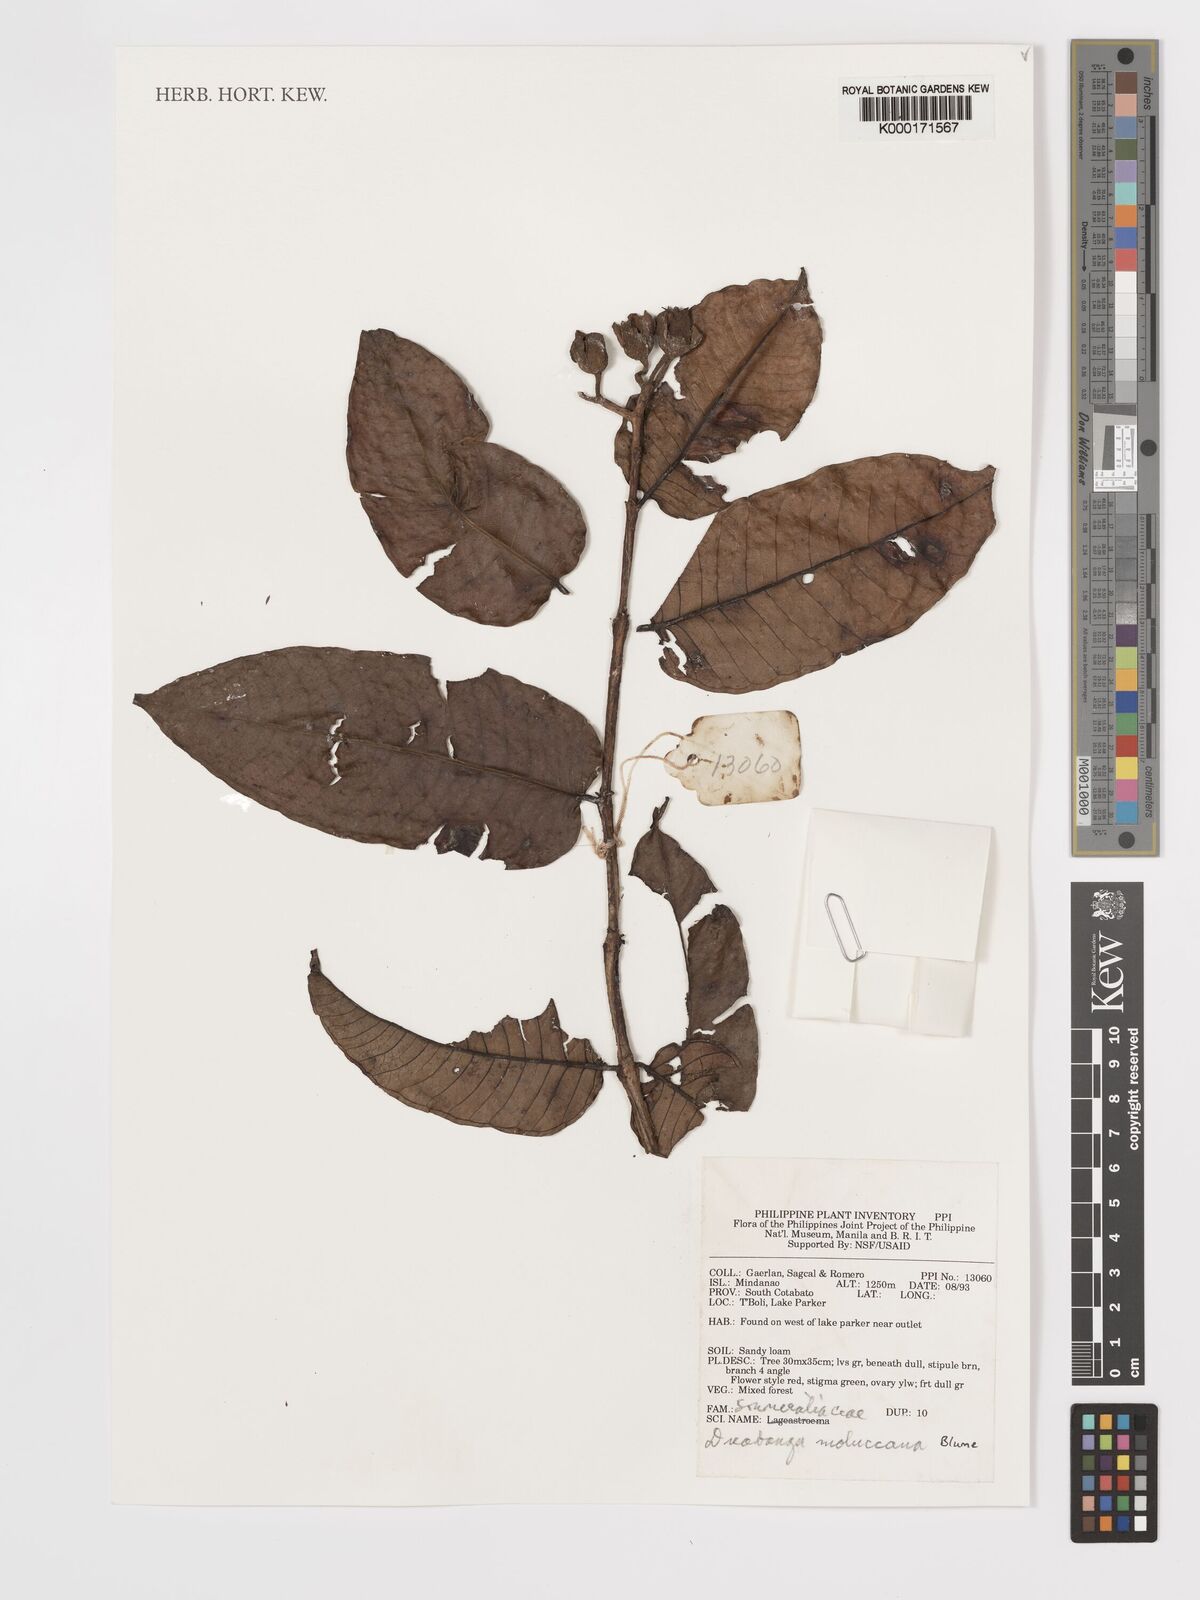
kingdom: Plantae
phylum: Tracheophyta
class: Magnoliopsida
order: Myrtales
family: Lythraceae
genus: Duabanga
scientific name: Duabanga moluccana
